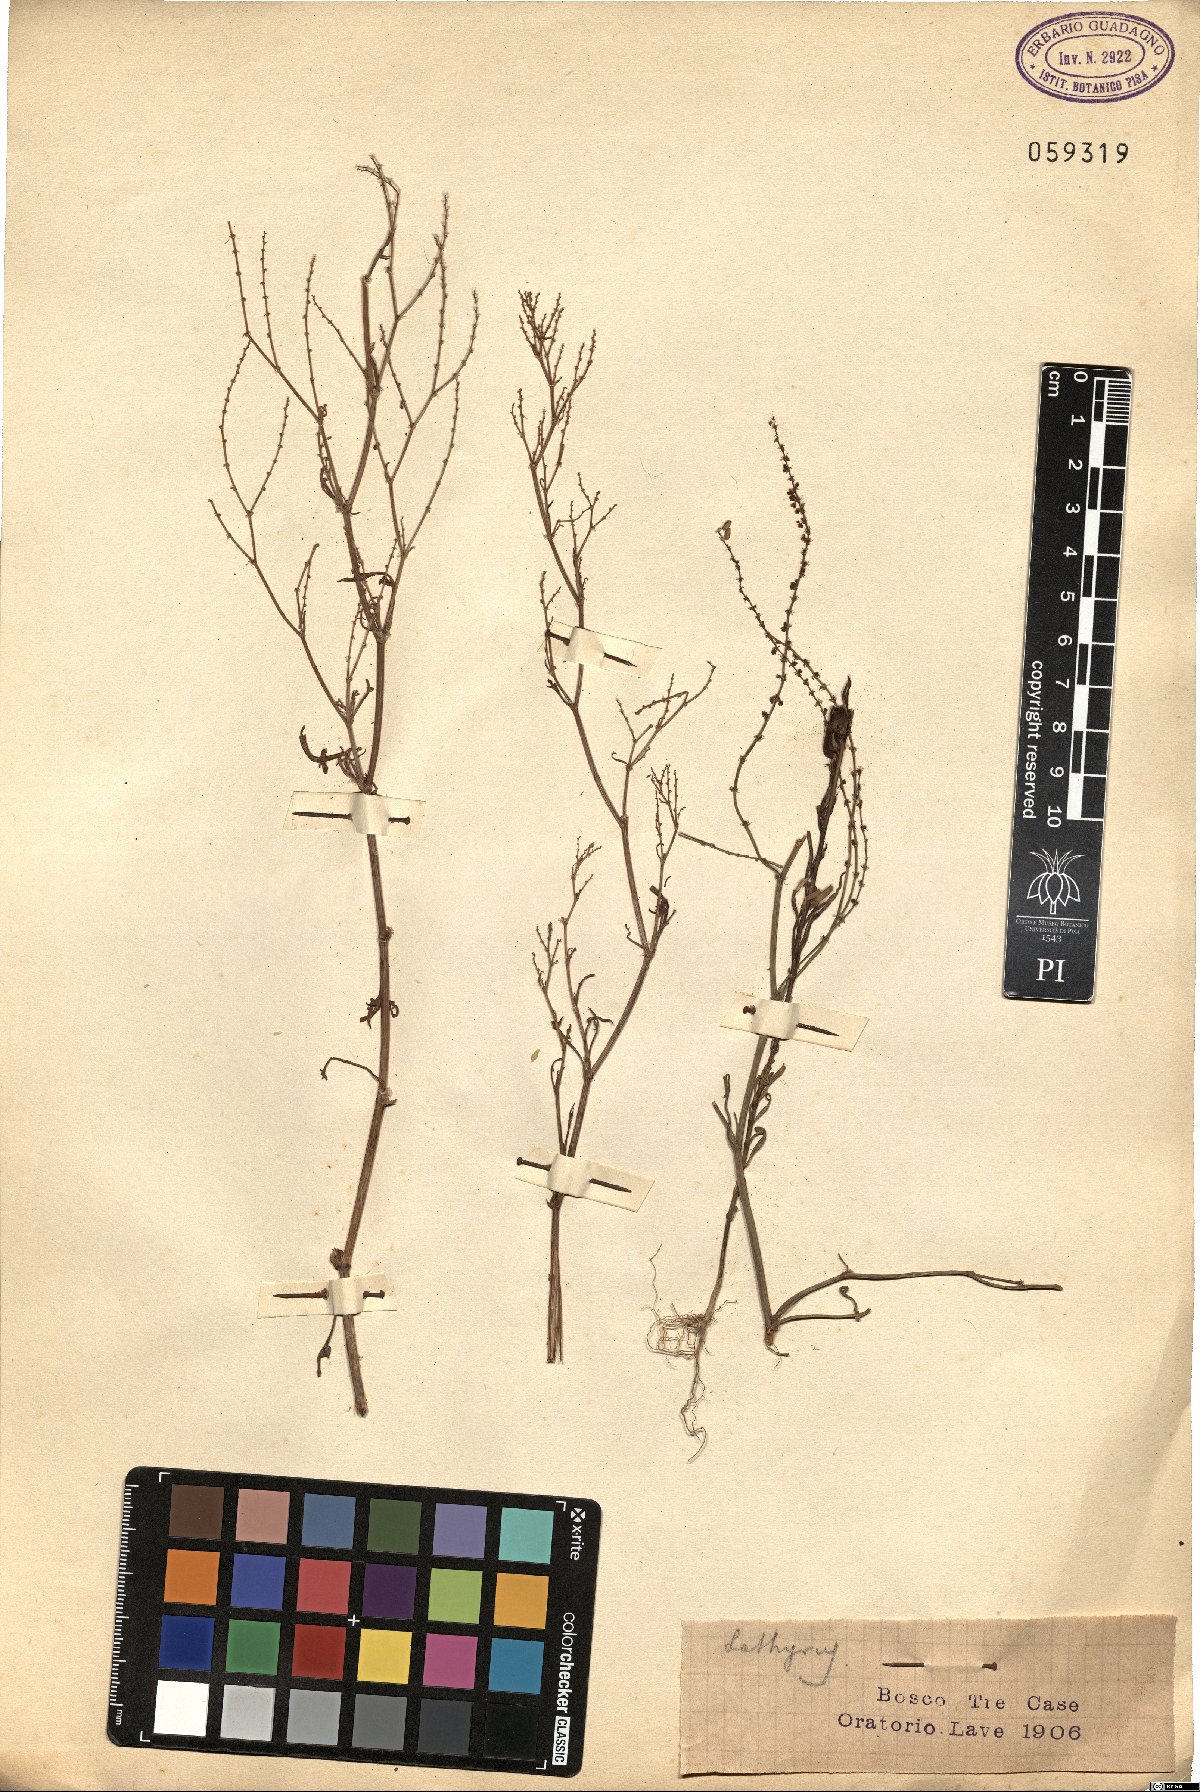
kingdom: Plantae
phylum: Tracheophyta
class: Magnoliopsida
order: Fabales
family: Fabaceae
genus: Lathyrus
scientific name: Lathyrus
